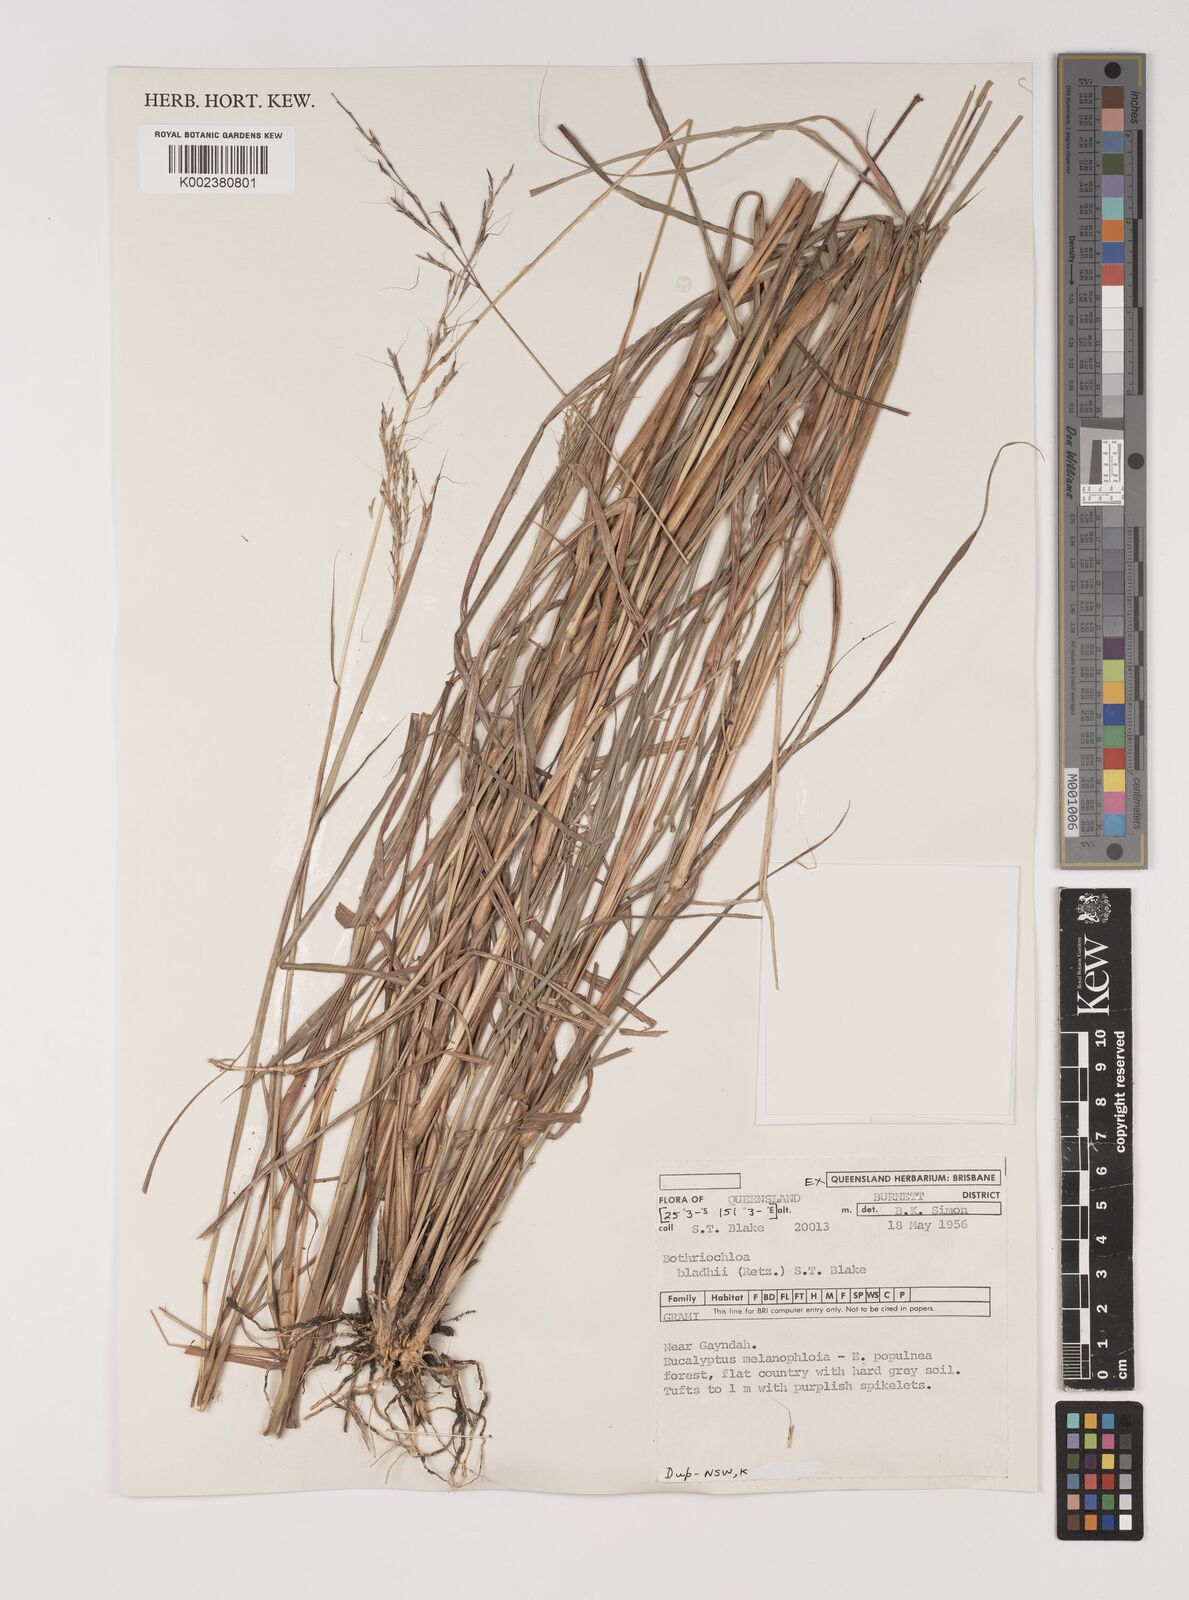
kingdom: Plantae
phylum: Tracheophyta
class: Liliopsida
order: Poales
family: Poaceae
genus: Bothriochloa
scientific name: Bothriochloa bladhii
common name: Caucasian bluestem
